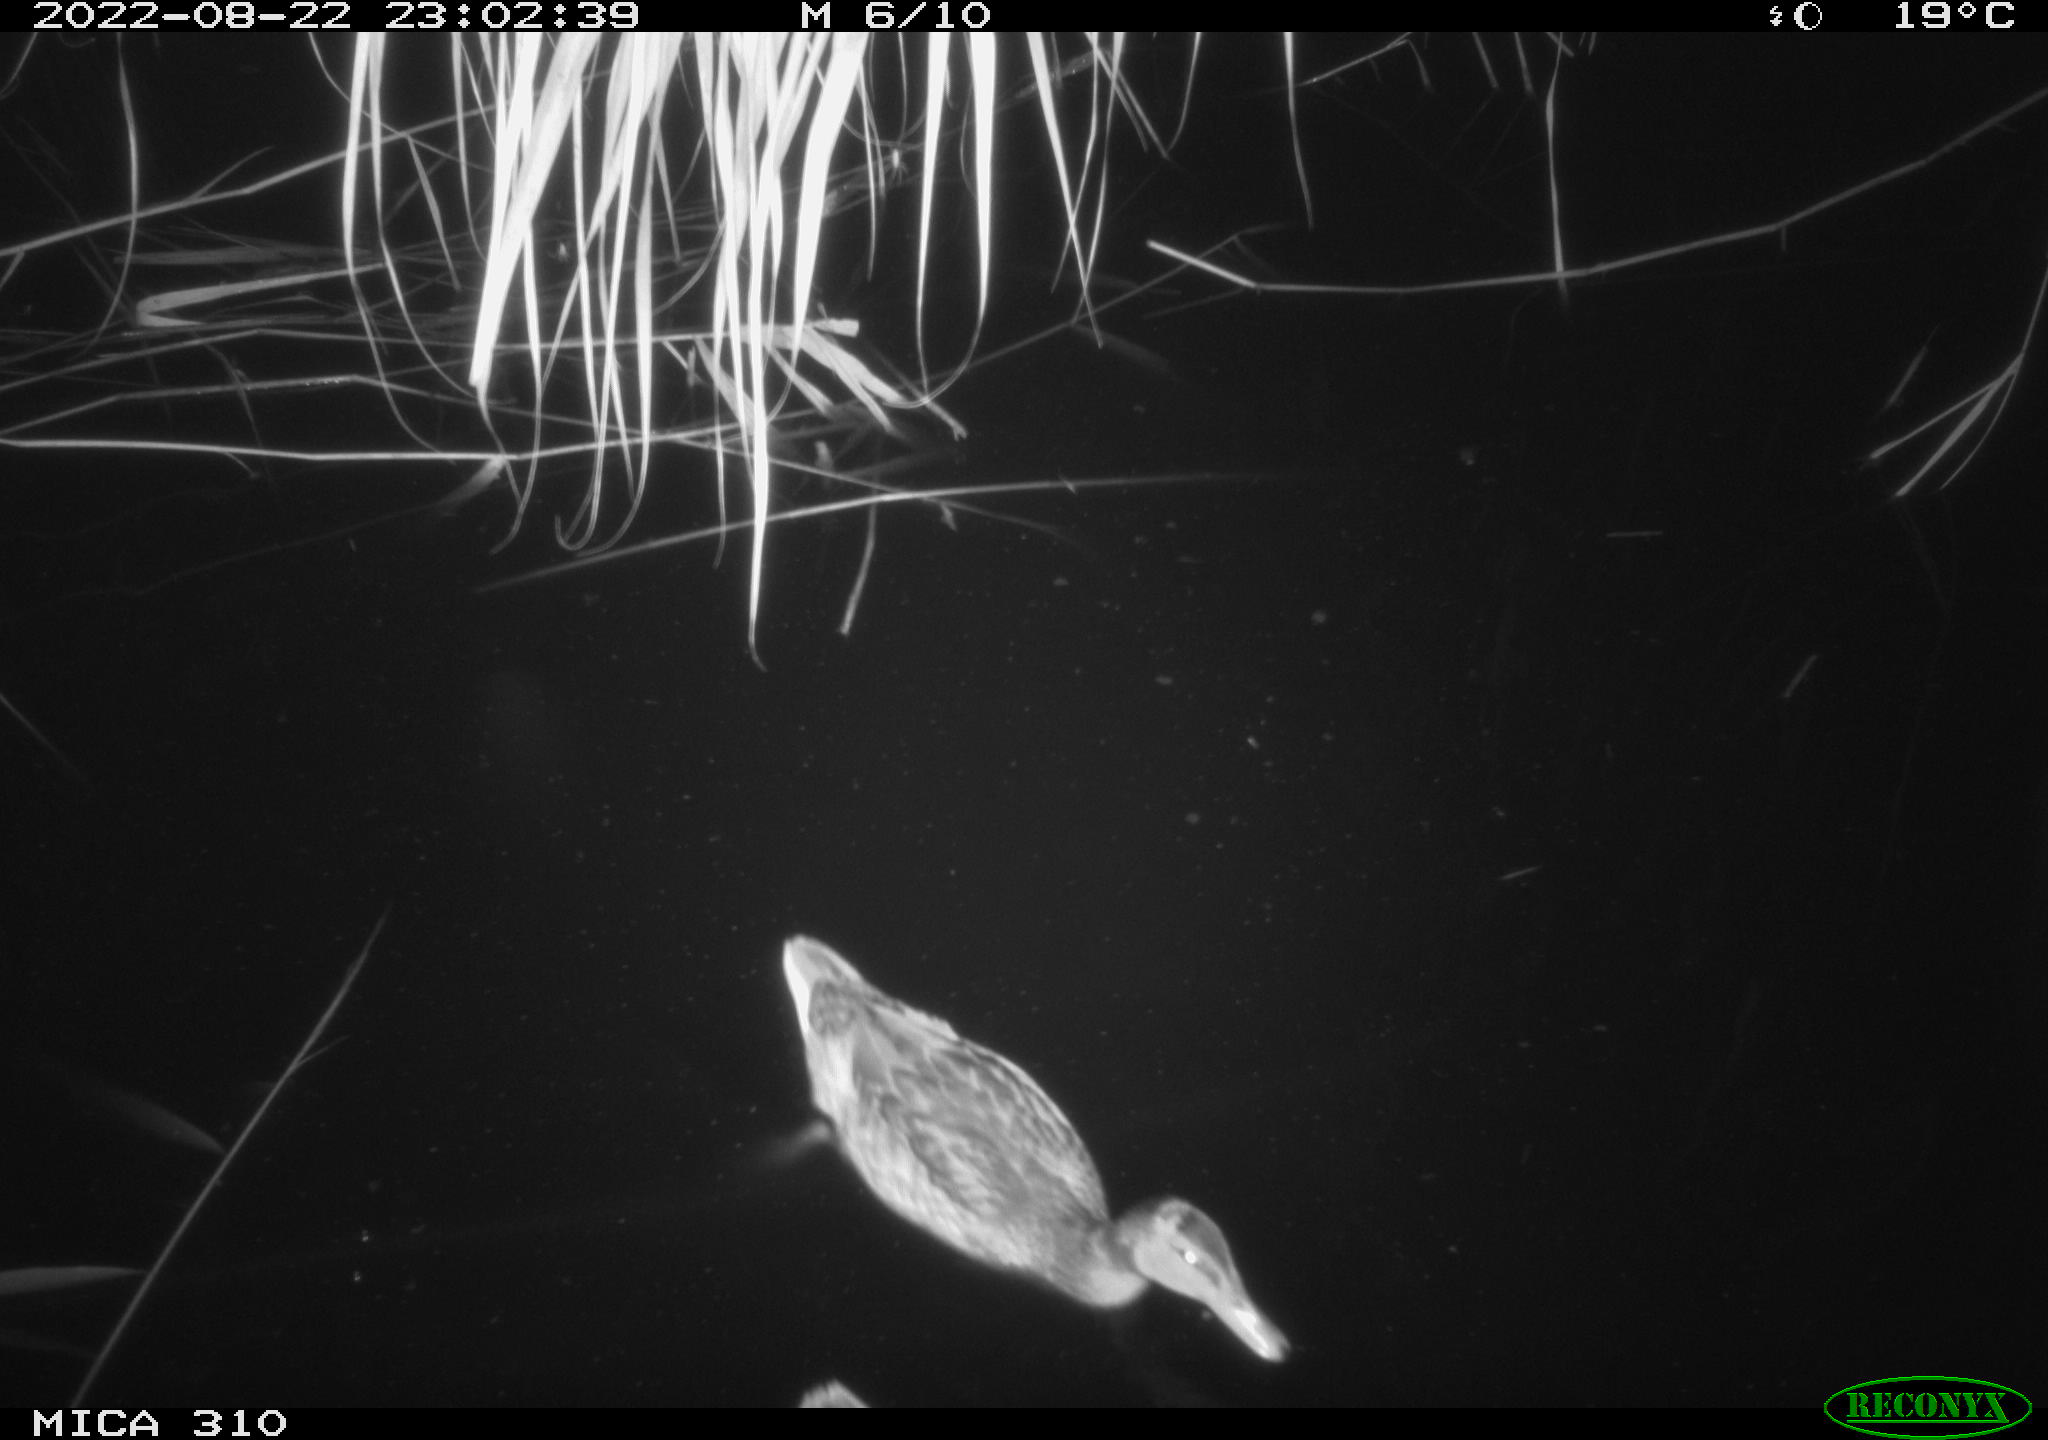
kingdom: Animalia
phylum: Chordata
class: Aves
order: Anseriformes
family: Anatidae
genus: Anas
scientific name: Anas platyrhynchos
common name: Mallard
